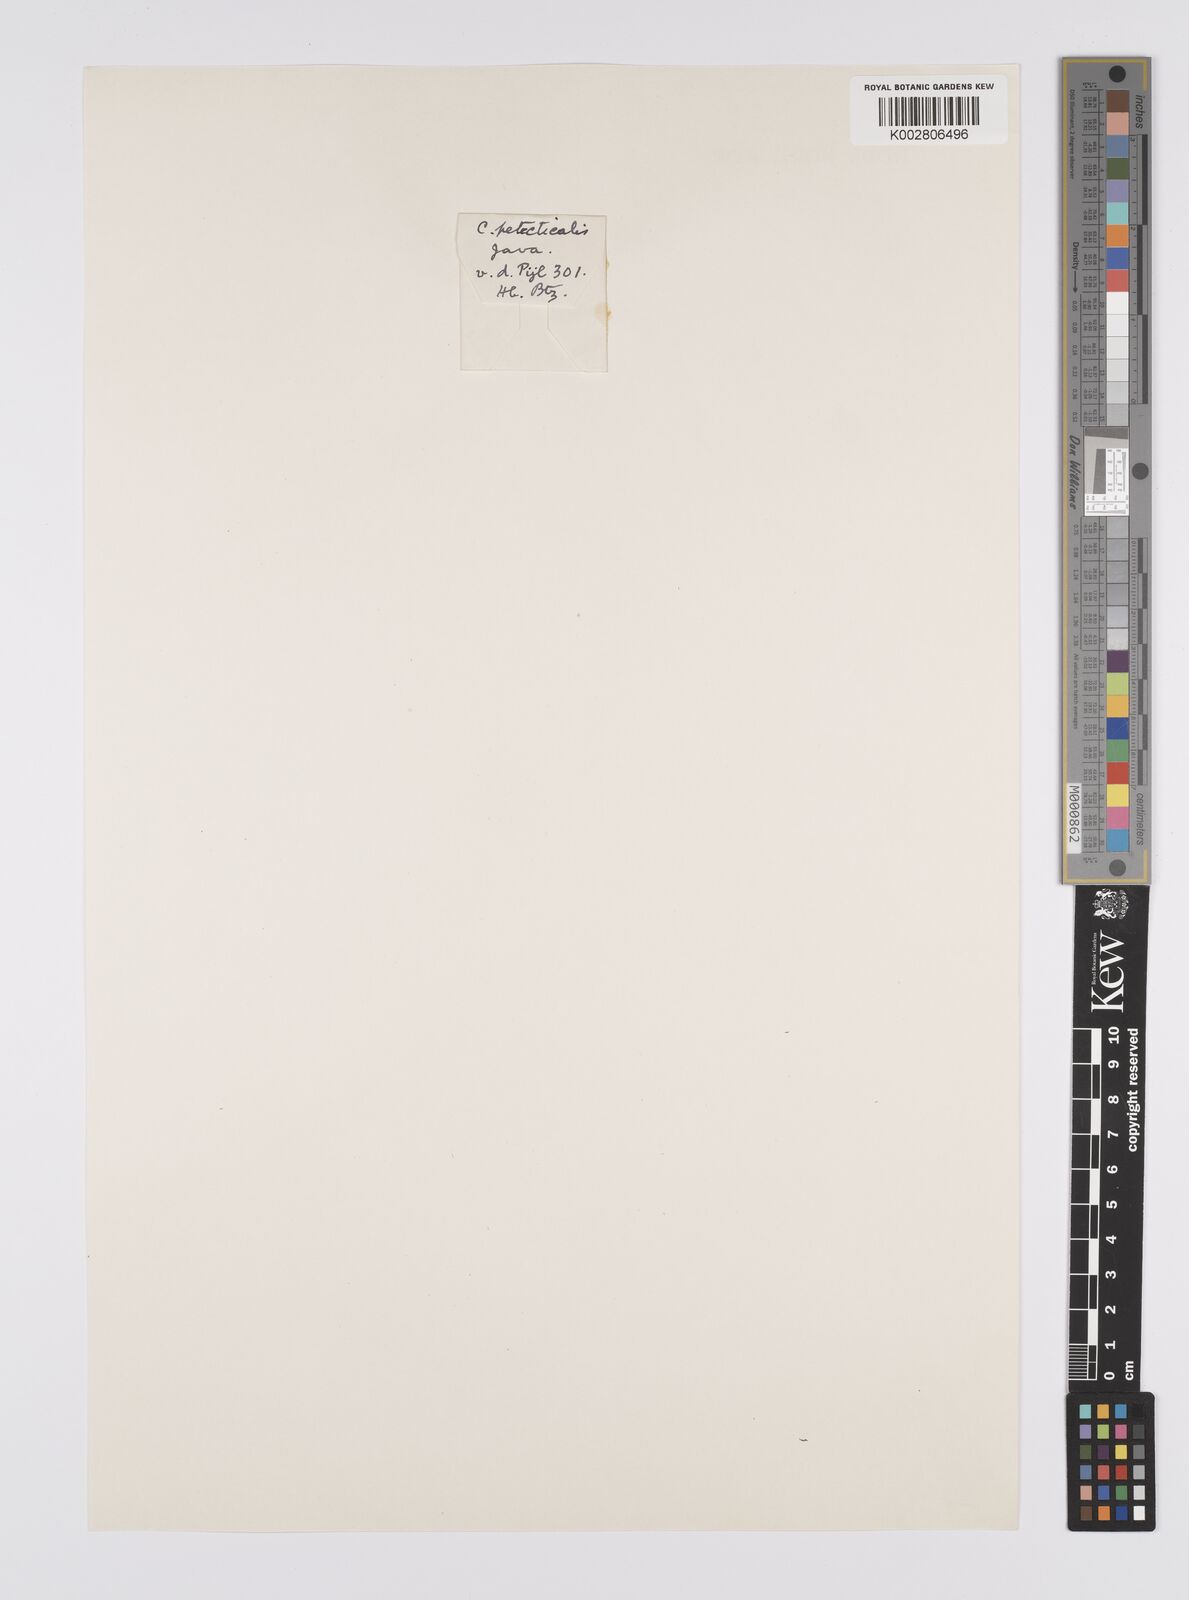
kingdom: Plantae
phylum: Tracheophyta
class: Liliopsida
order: Poales
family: Cyperaceae
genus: Carex
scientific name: Carex teres
